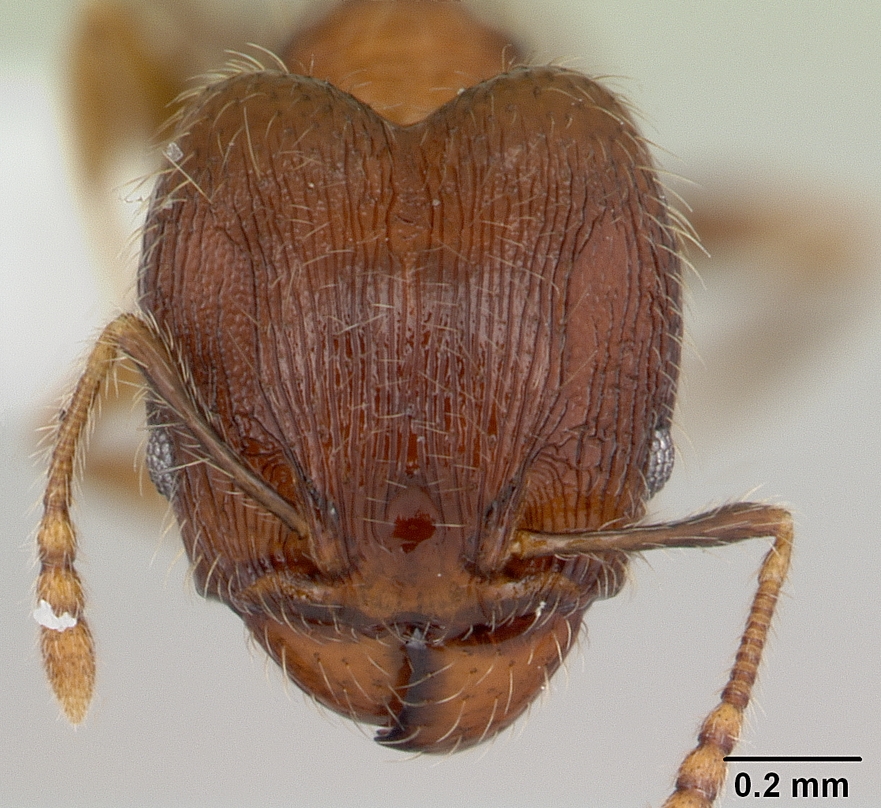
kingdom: Animalia
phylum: Arthropoda
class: Insecta
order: Hymenoptera
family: Formicidae
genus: Pheidole
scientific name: Pheidole alacris
